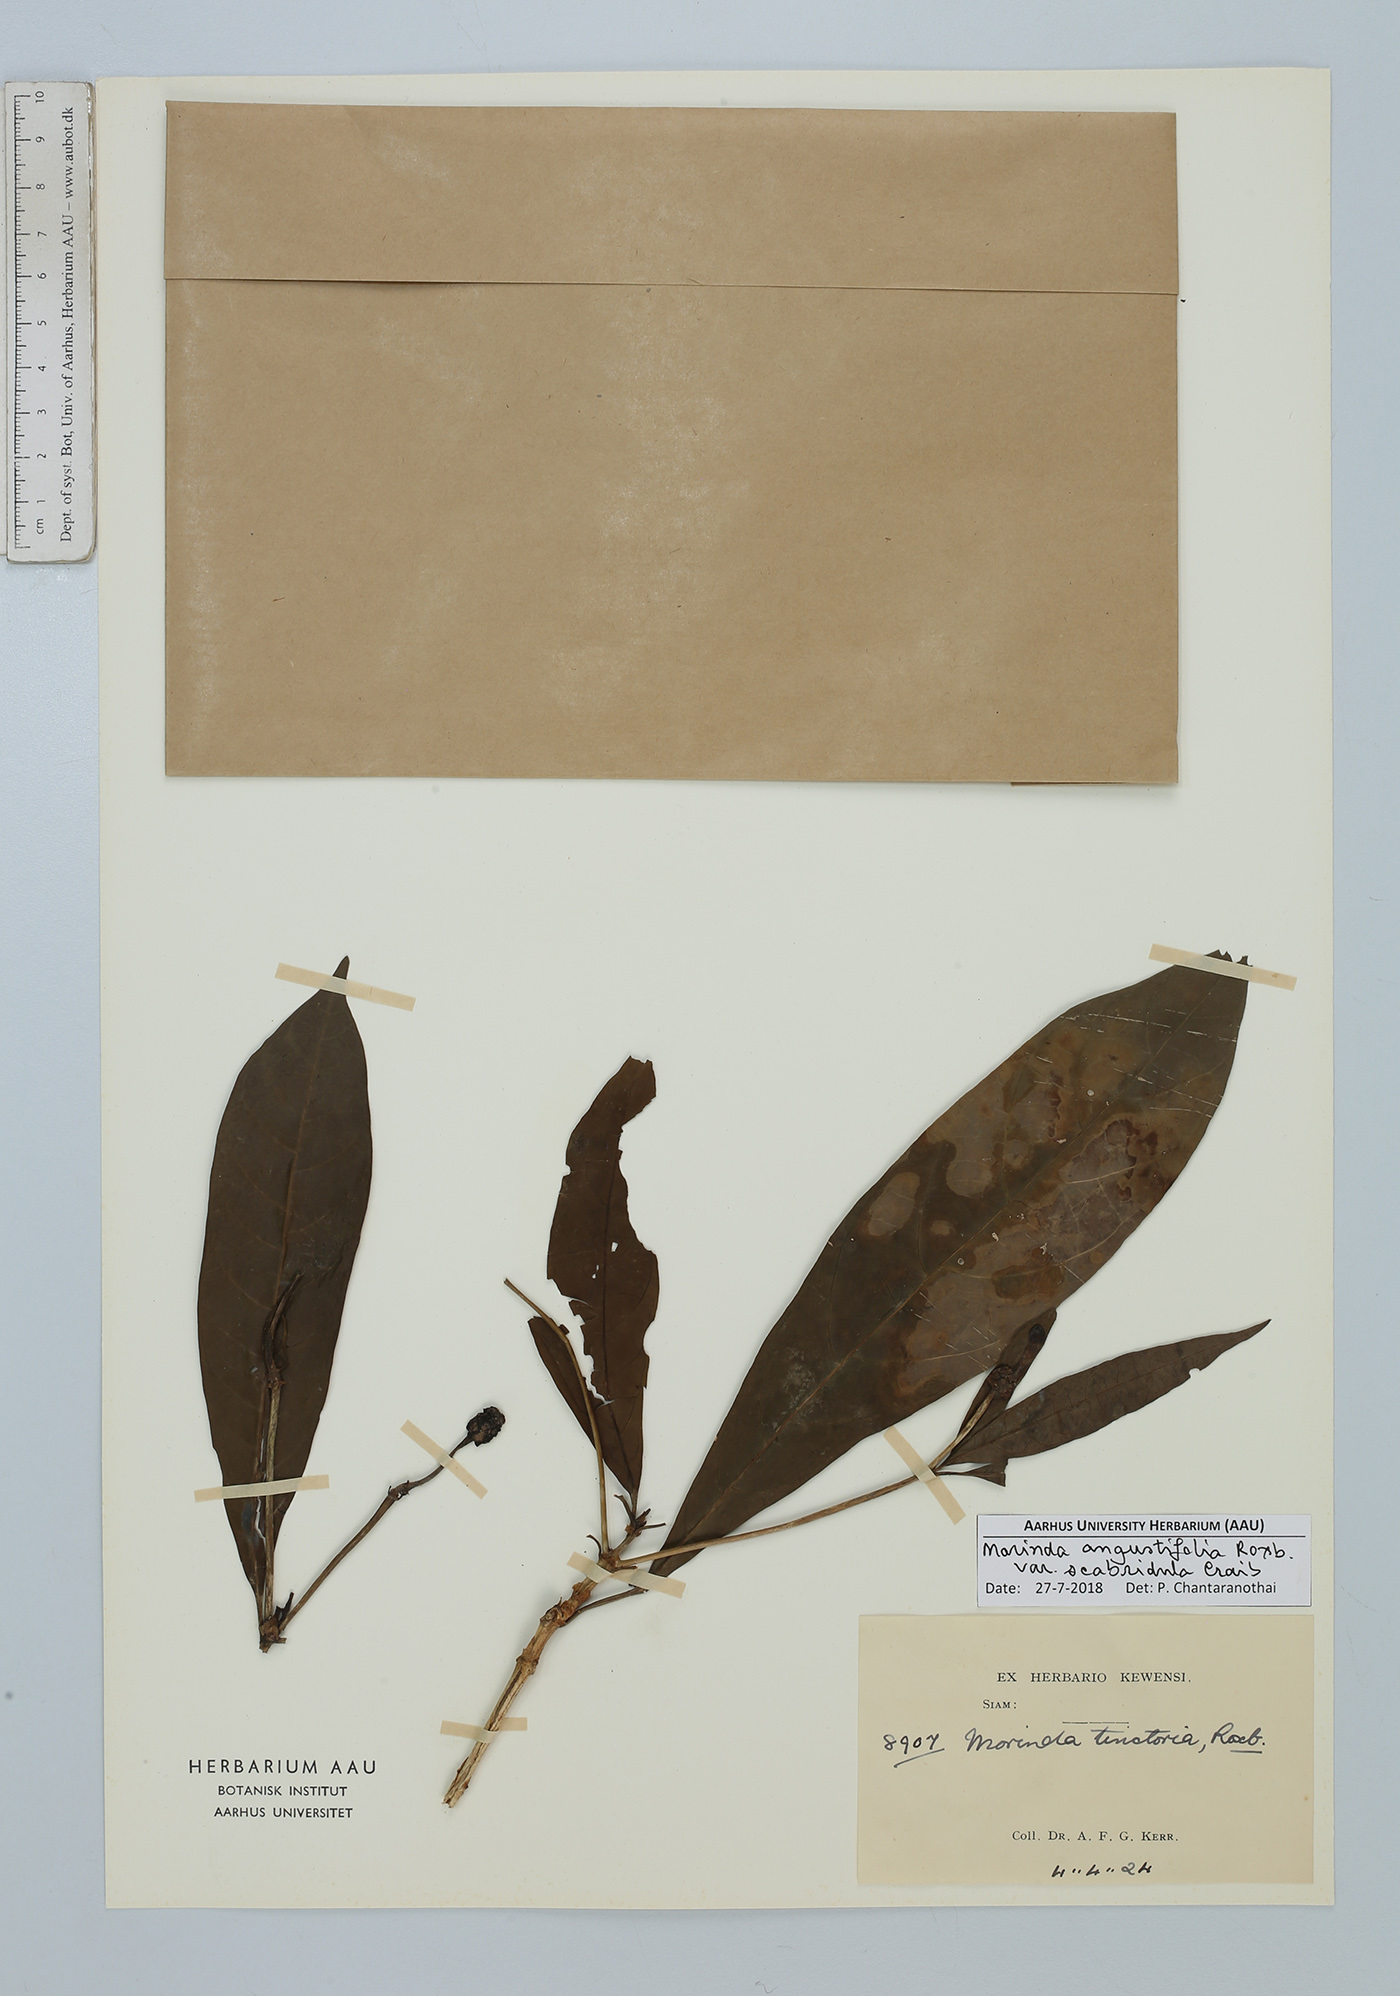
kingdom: Plantae
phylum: Tracheophyta
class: Magnoliopsida
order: Gentianales
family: Rubiaceae
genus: Morinda
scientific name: Morinda angustifolia
